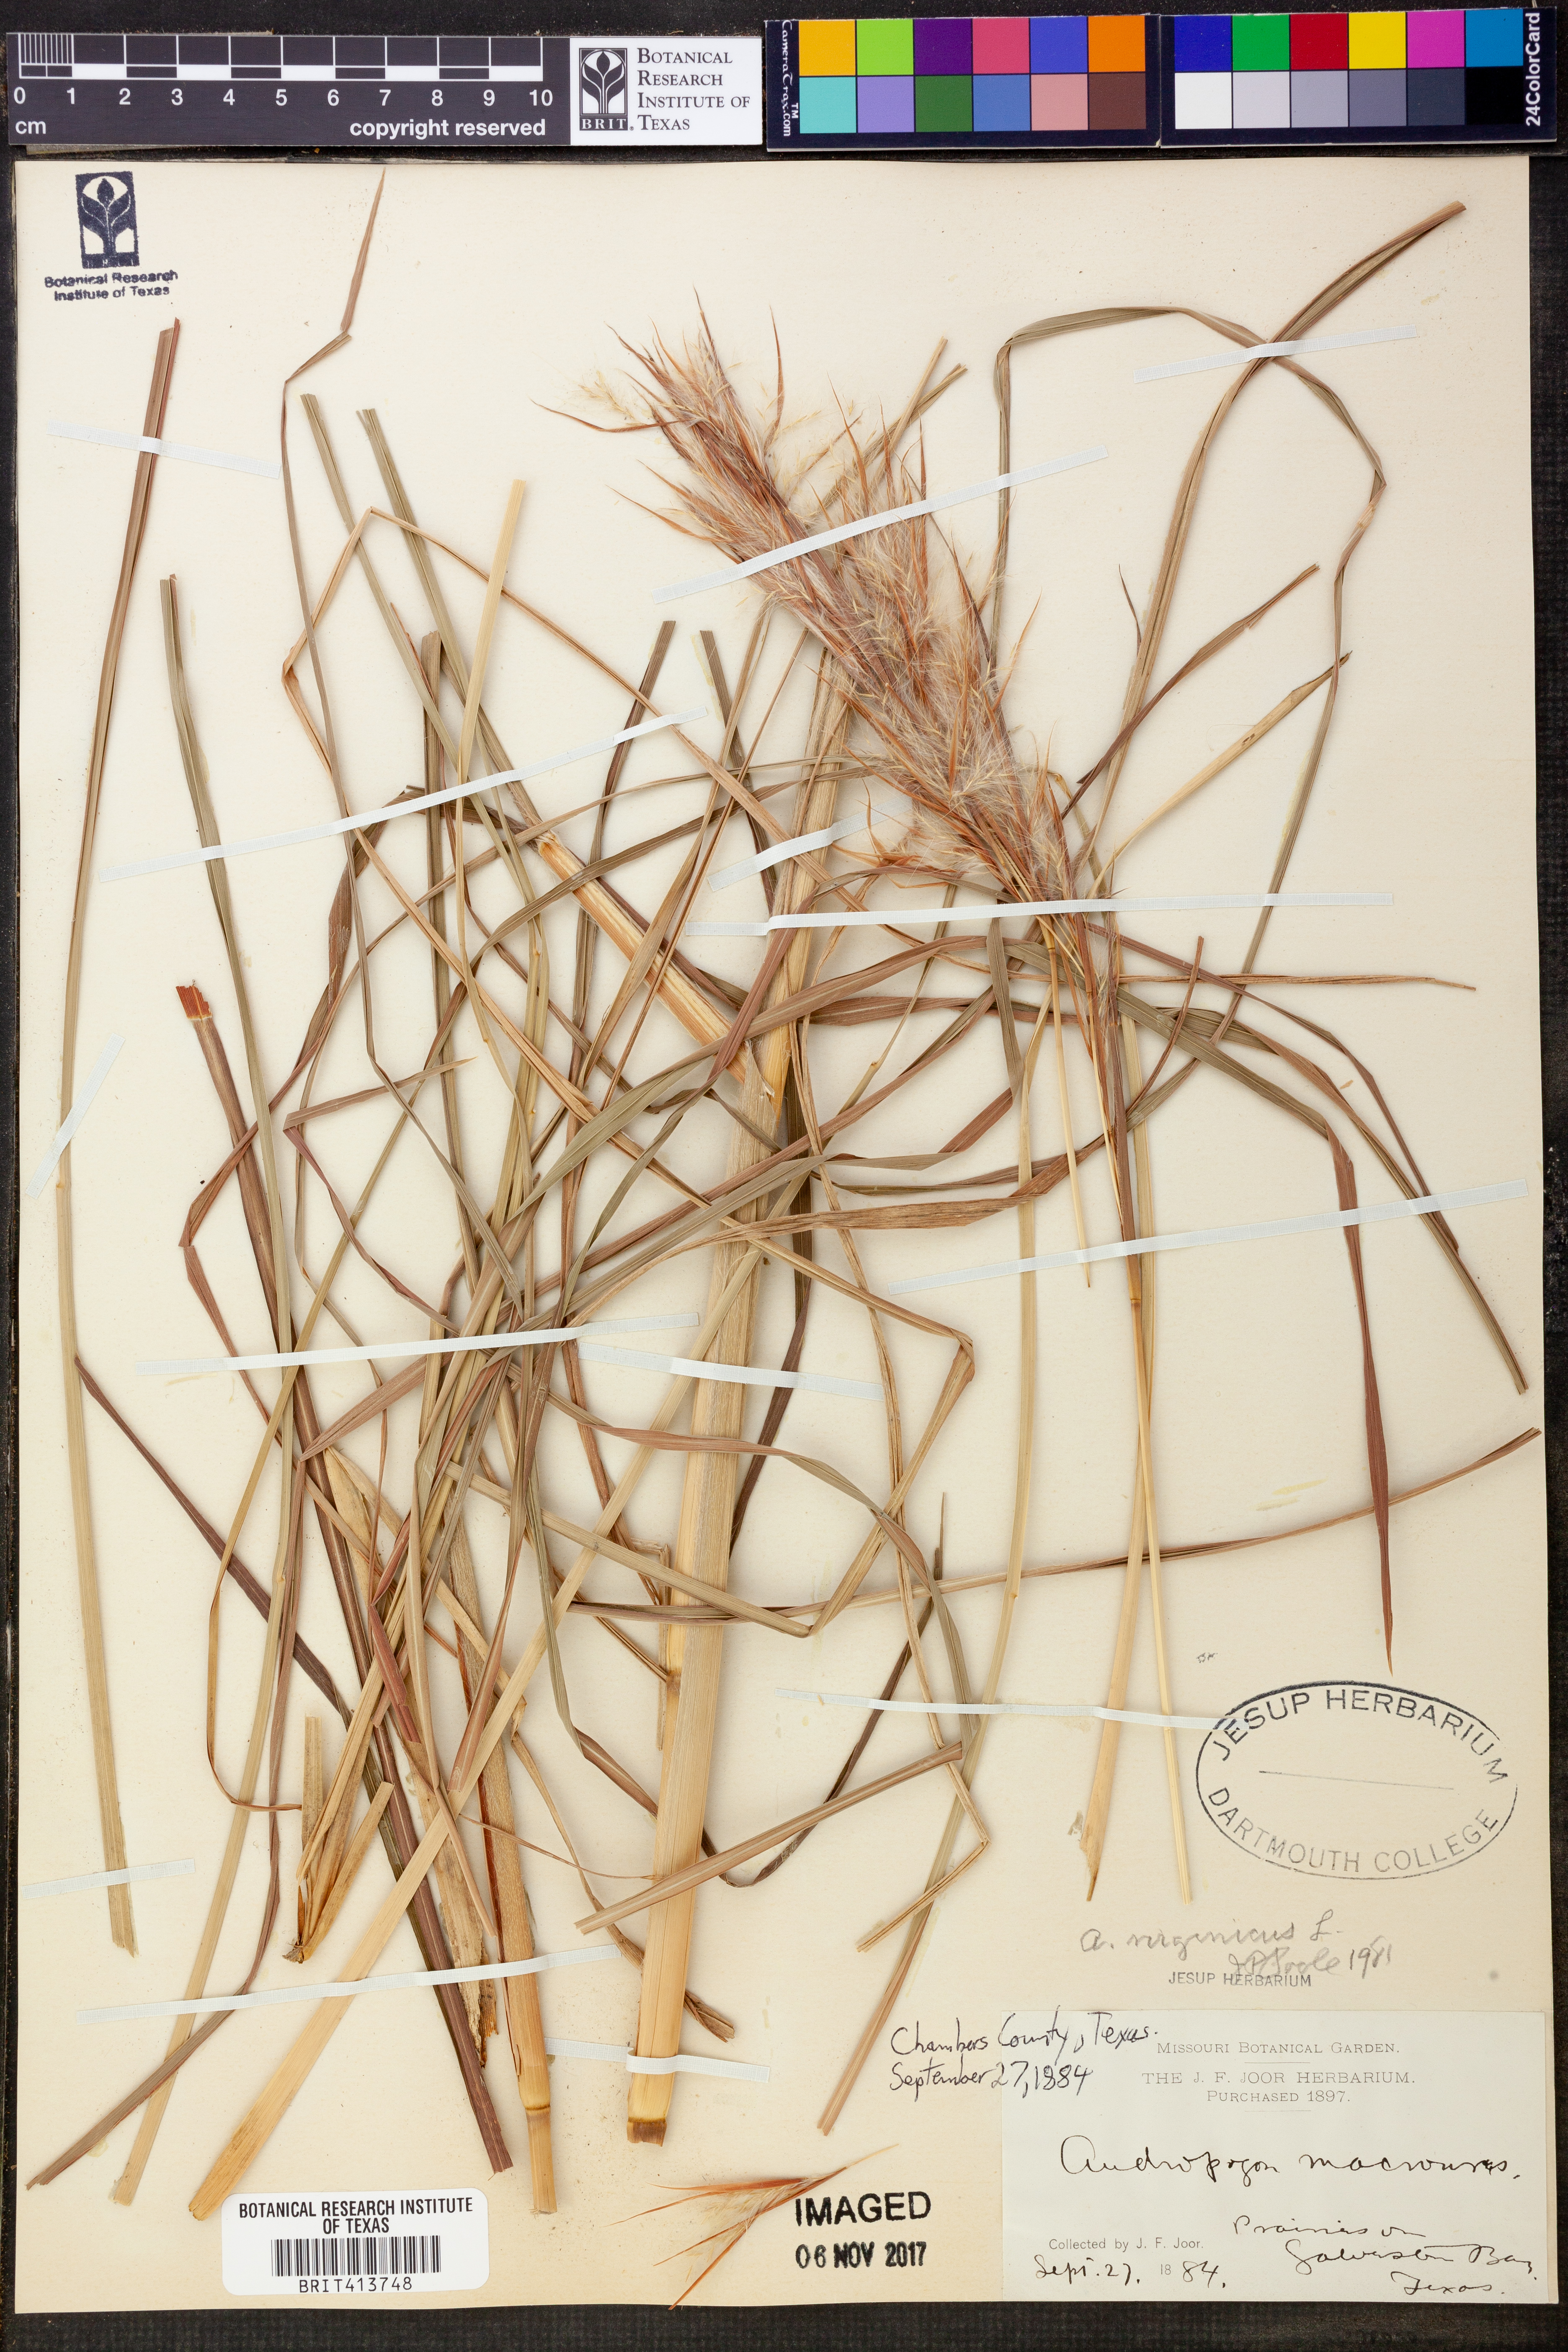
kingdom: Plantae
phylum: Tracheophyta
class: Liliopsida
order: Poales
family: Poaceae
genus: Andropogon
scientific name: Andropogon virginicus
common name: Broomsedge bluestem
